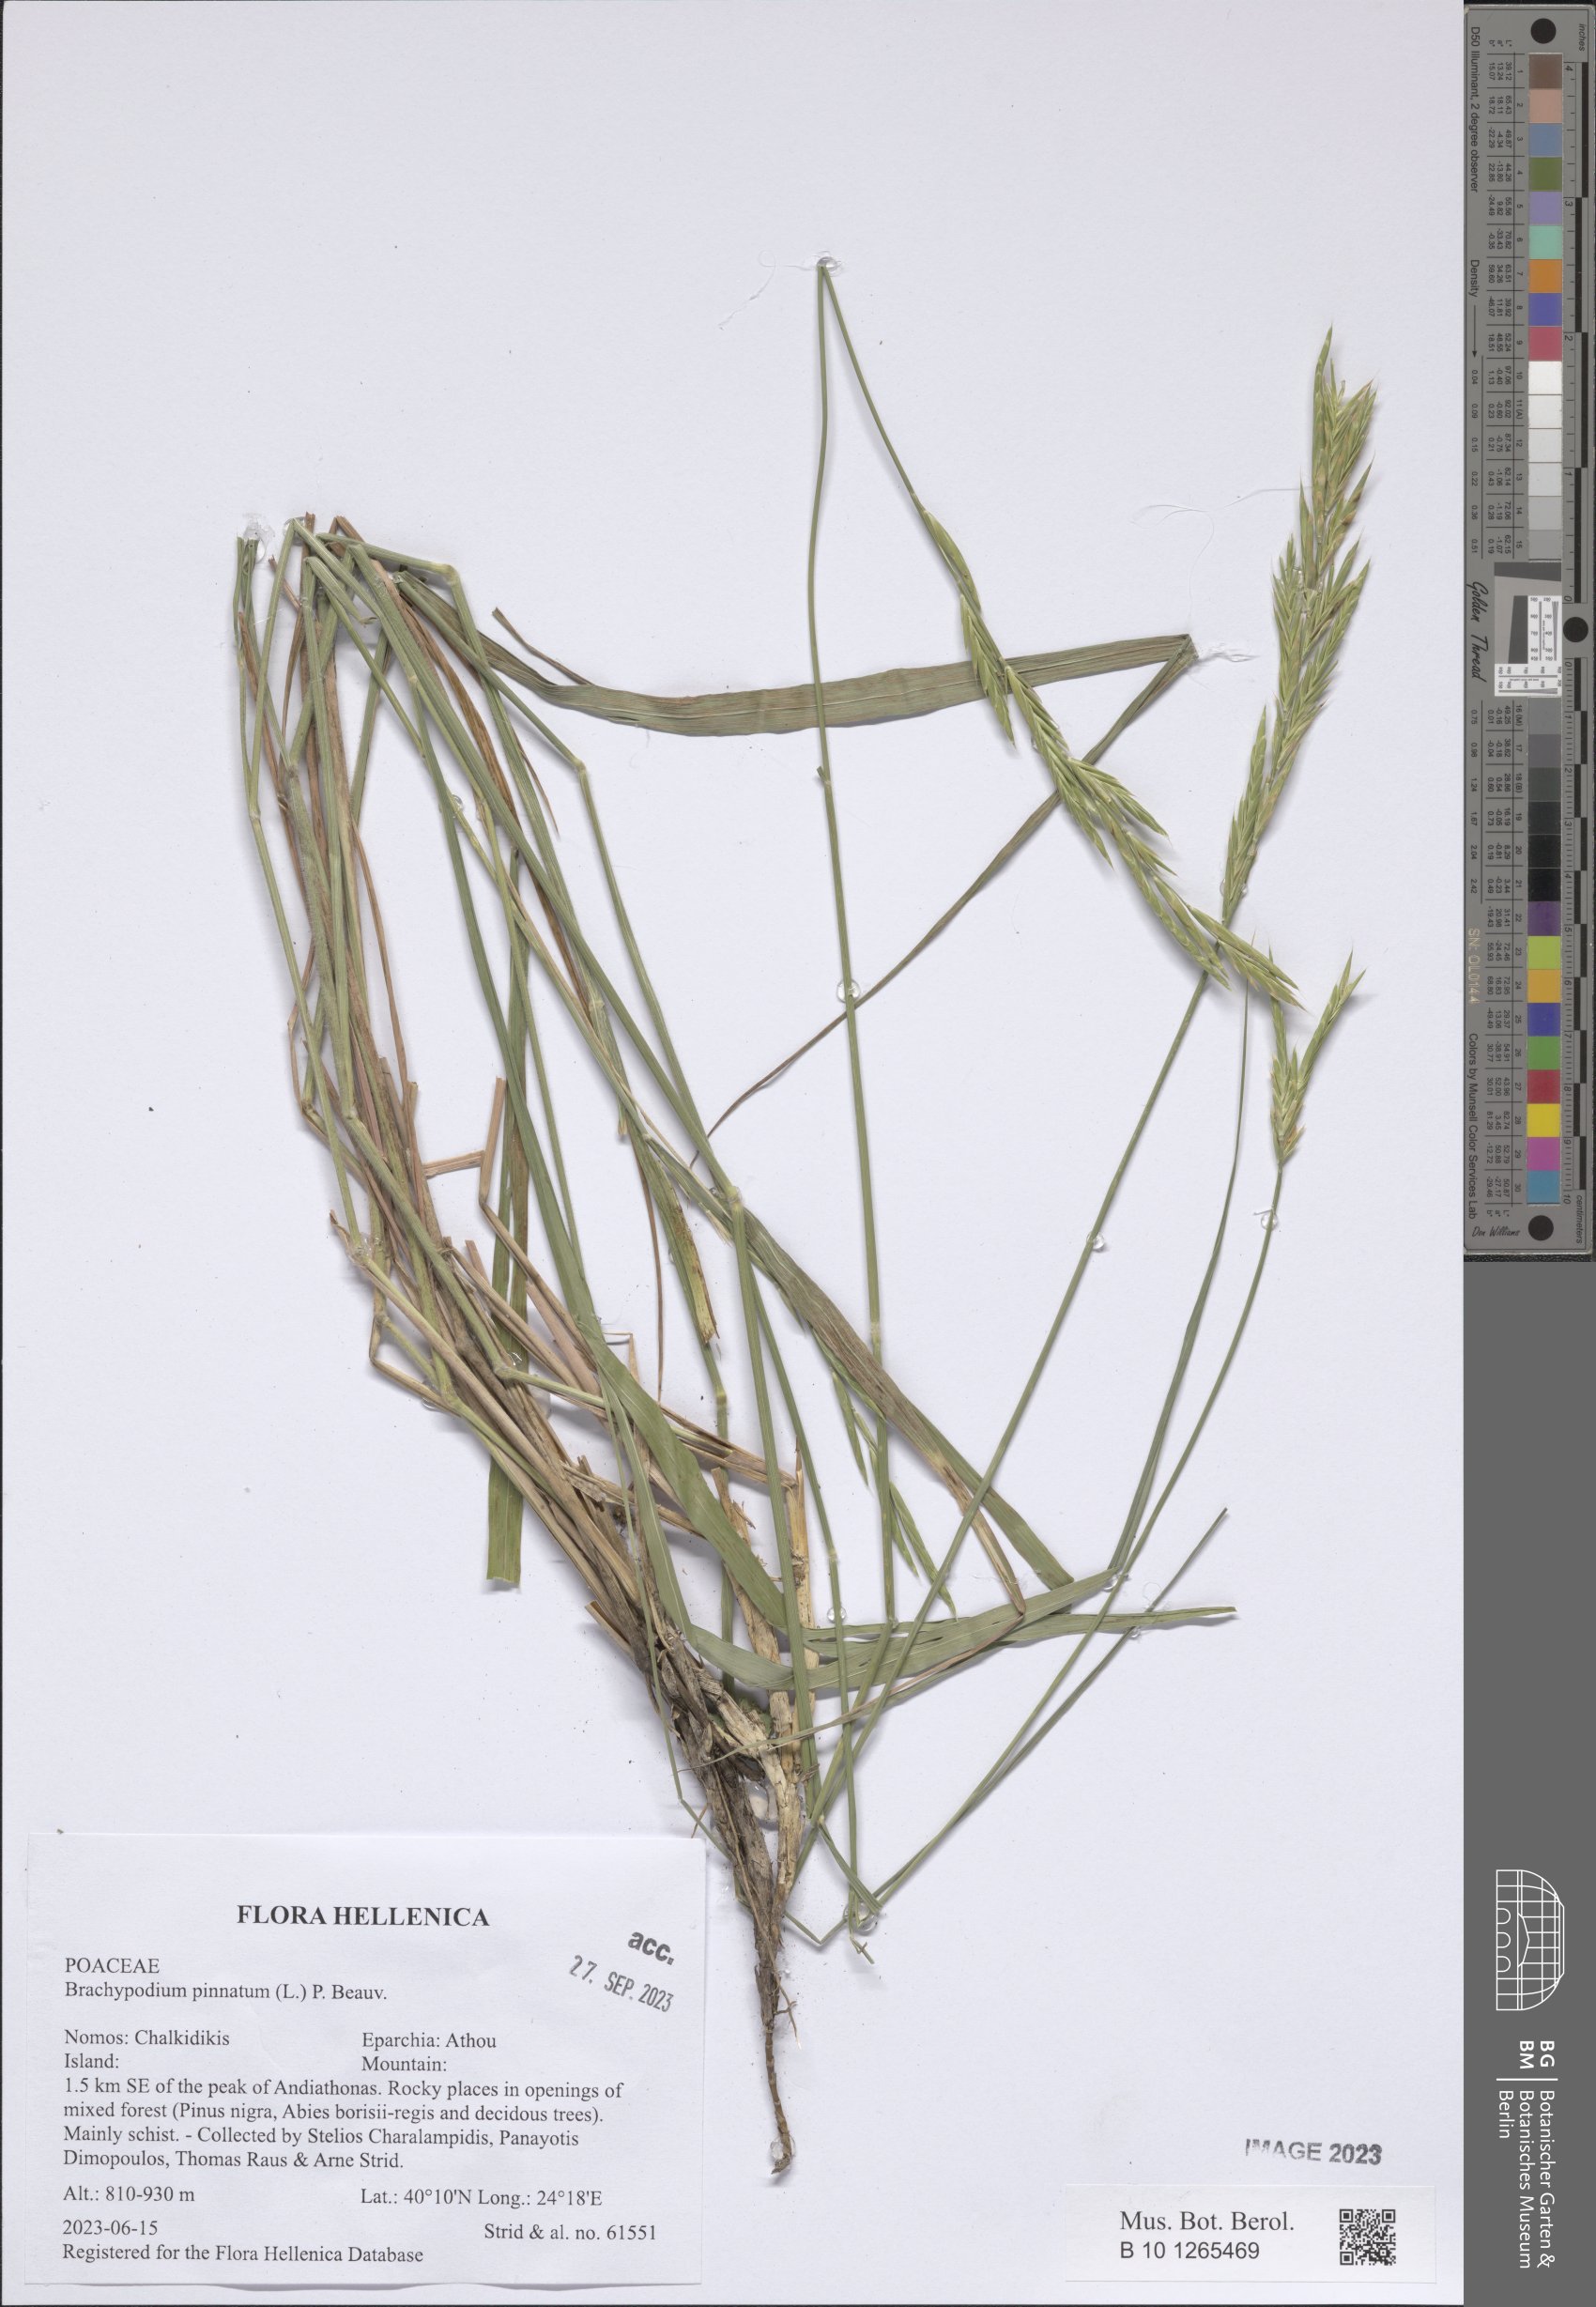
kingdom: Plantae
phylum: Tracheophyta
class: Liliopsida
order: Poales
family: Poaceae
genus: Brachypodium
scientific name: Brachypodium pinnatum
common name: Tor grass
